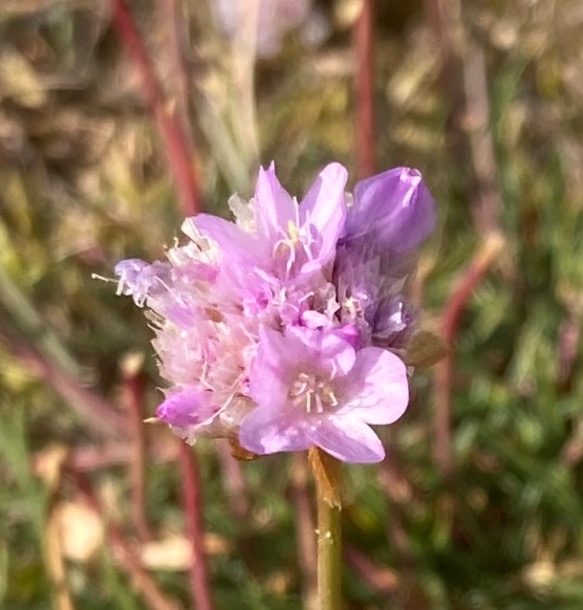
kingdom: Plantae
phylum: Tracheophyta
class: Magnoliopsida
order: Caryophyllales
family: Plumbaginaceae
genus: Armeria
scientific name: Armeria maritima
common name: Engelskgræs
